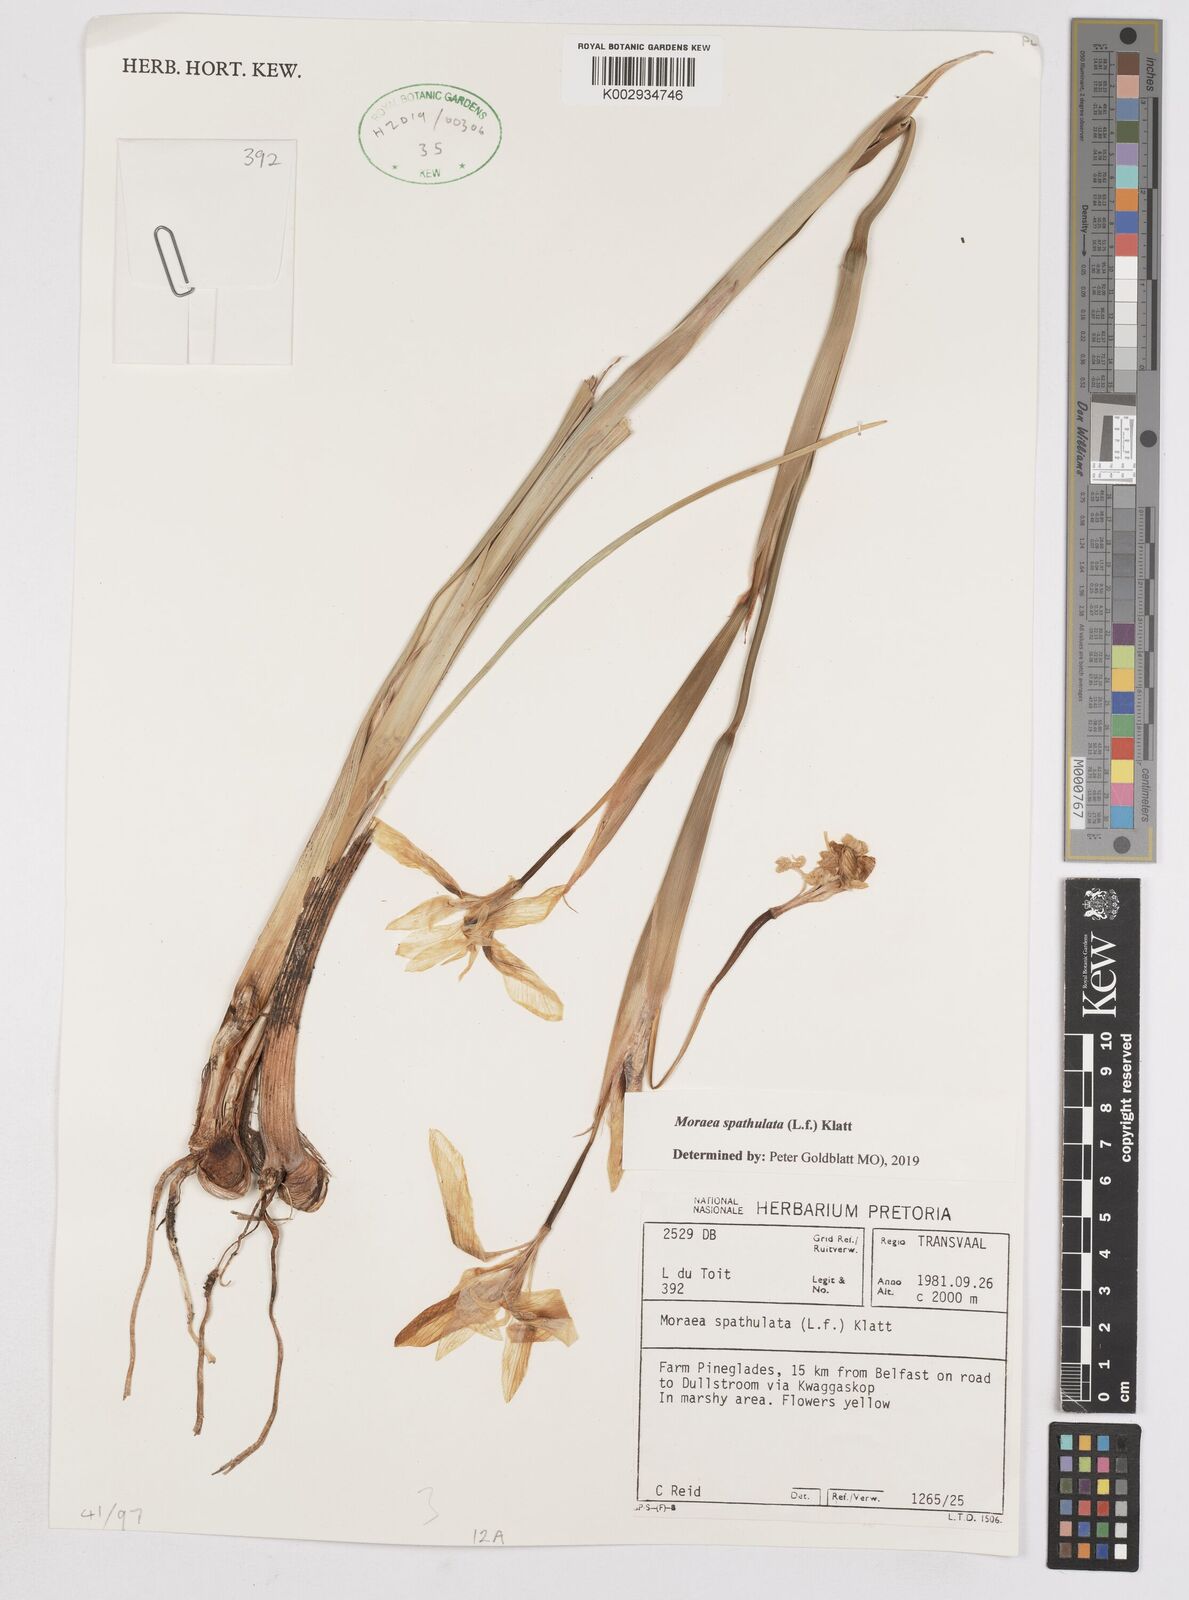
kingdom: Plantae
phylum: Tracheophyta
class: Liliopsida
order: Asparagales
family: Iridaceae
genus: Moraea
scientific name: Moraea spathulata
